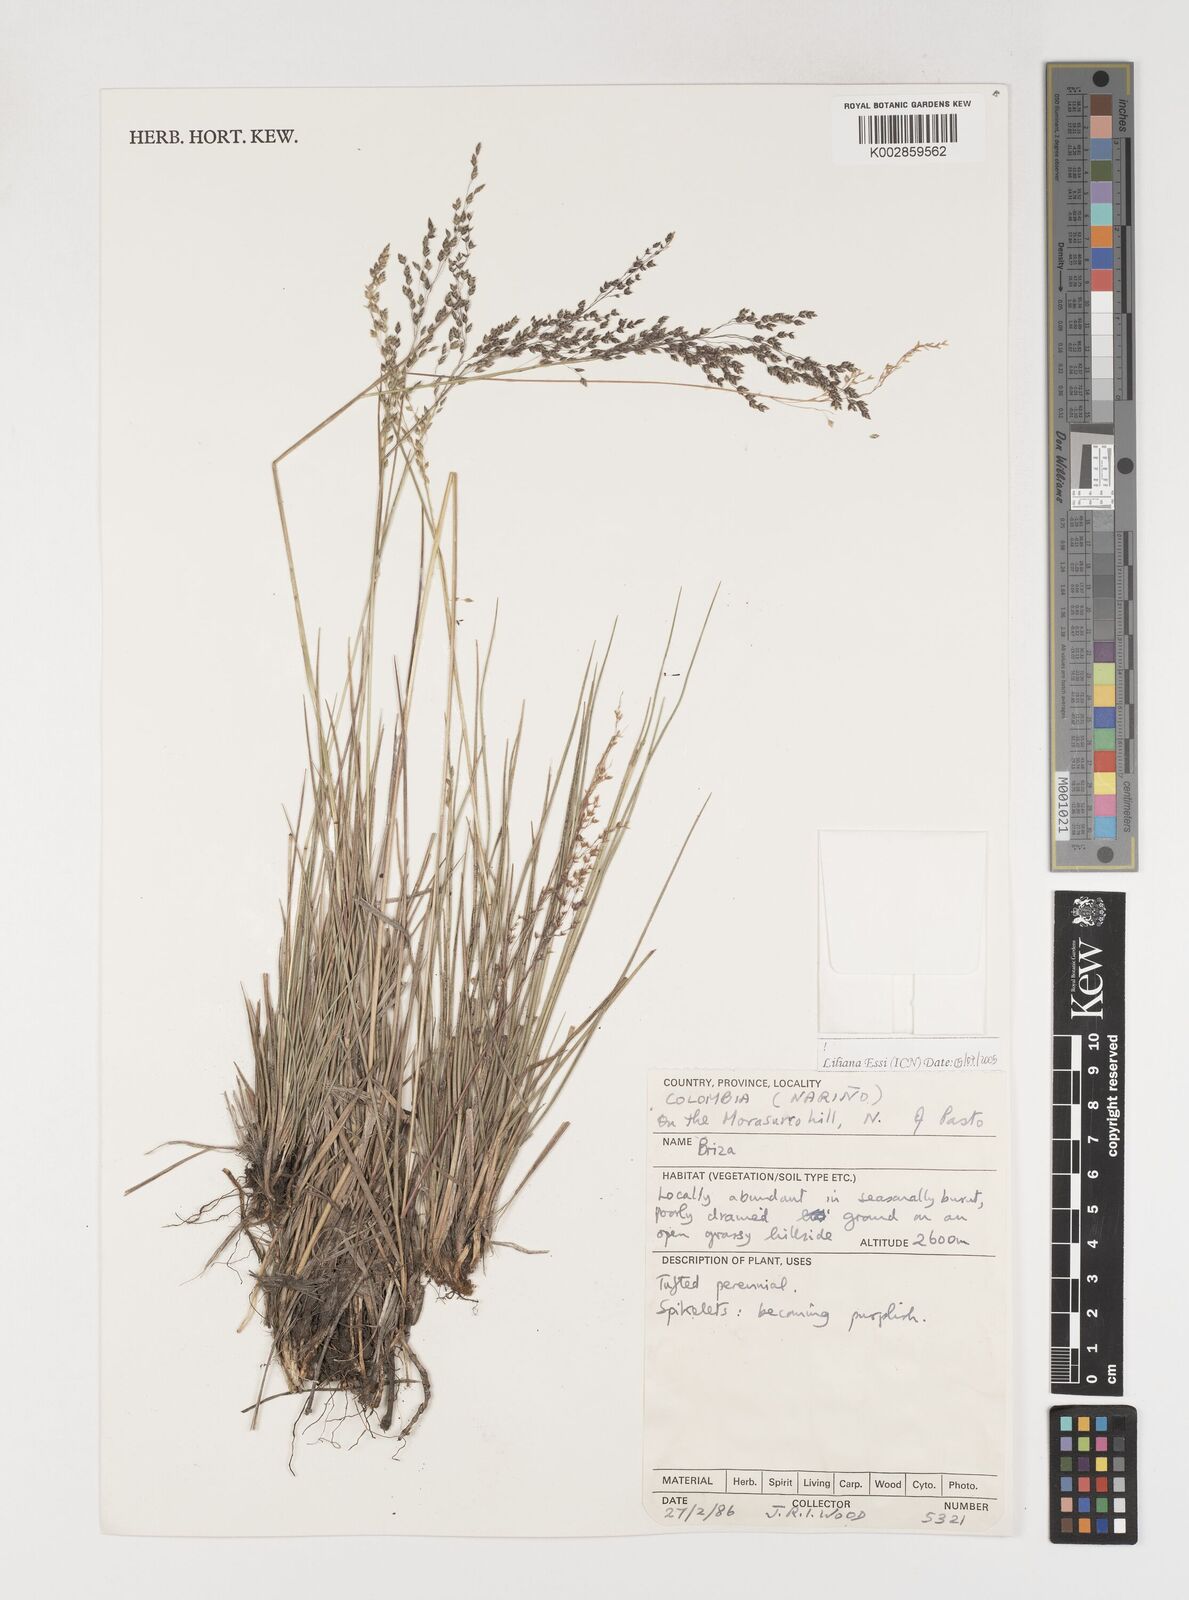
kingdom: Plantae
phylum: Tracheophyta
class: Liliopsida
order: Poales
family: Poaceae
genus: Poidium
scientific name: Poidium monandrum
